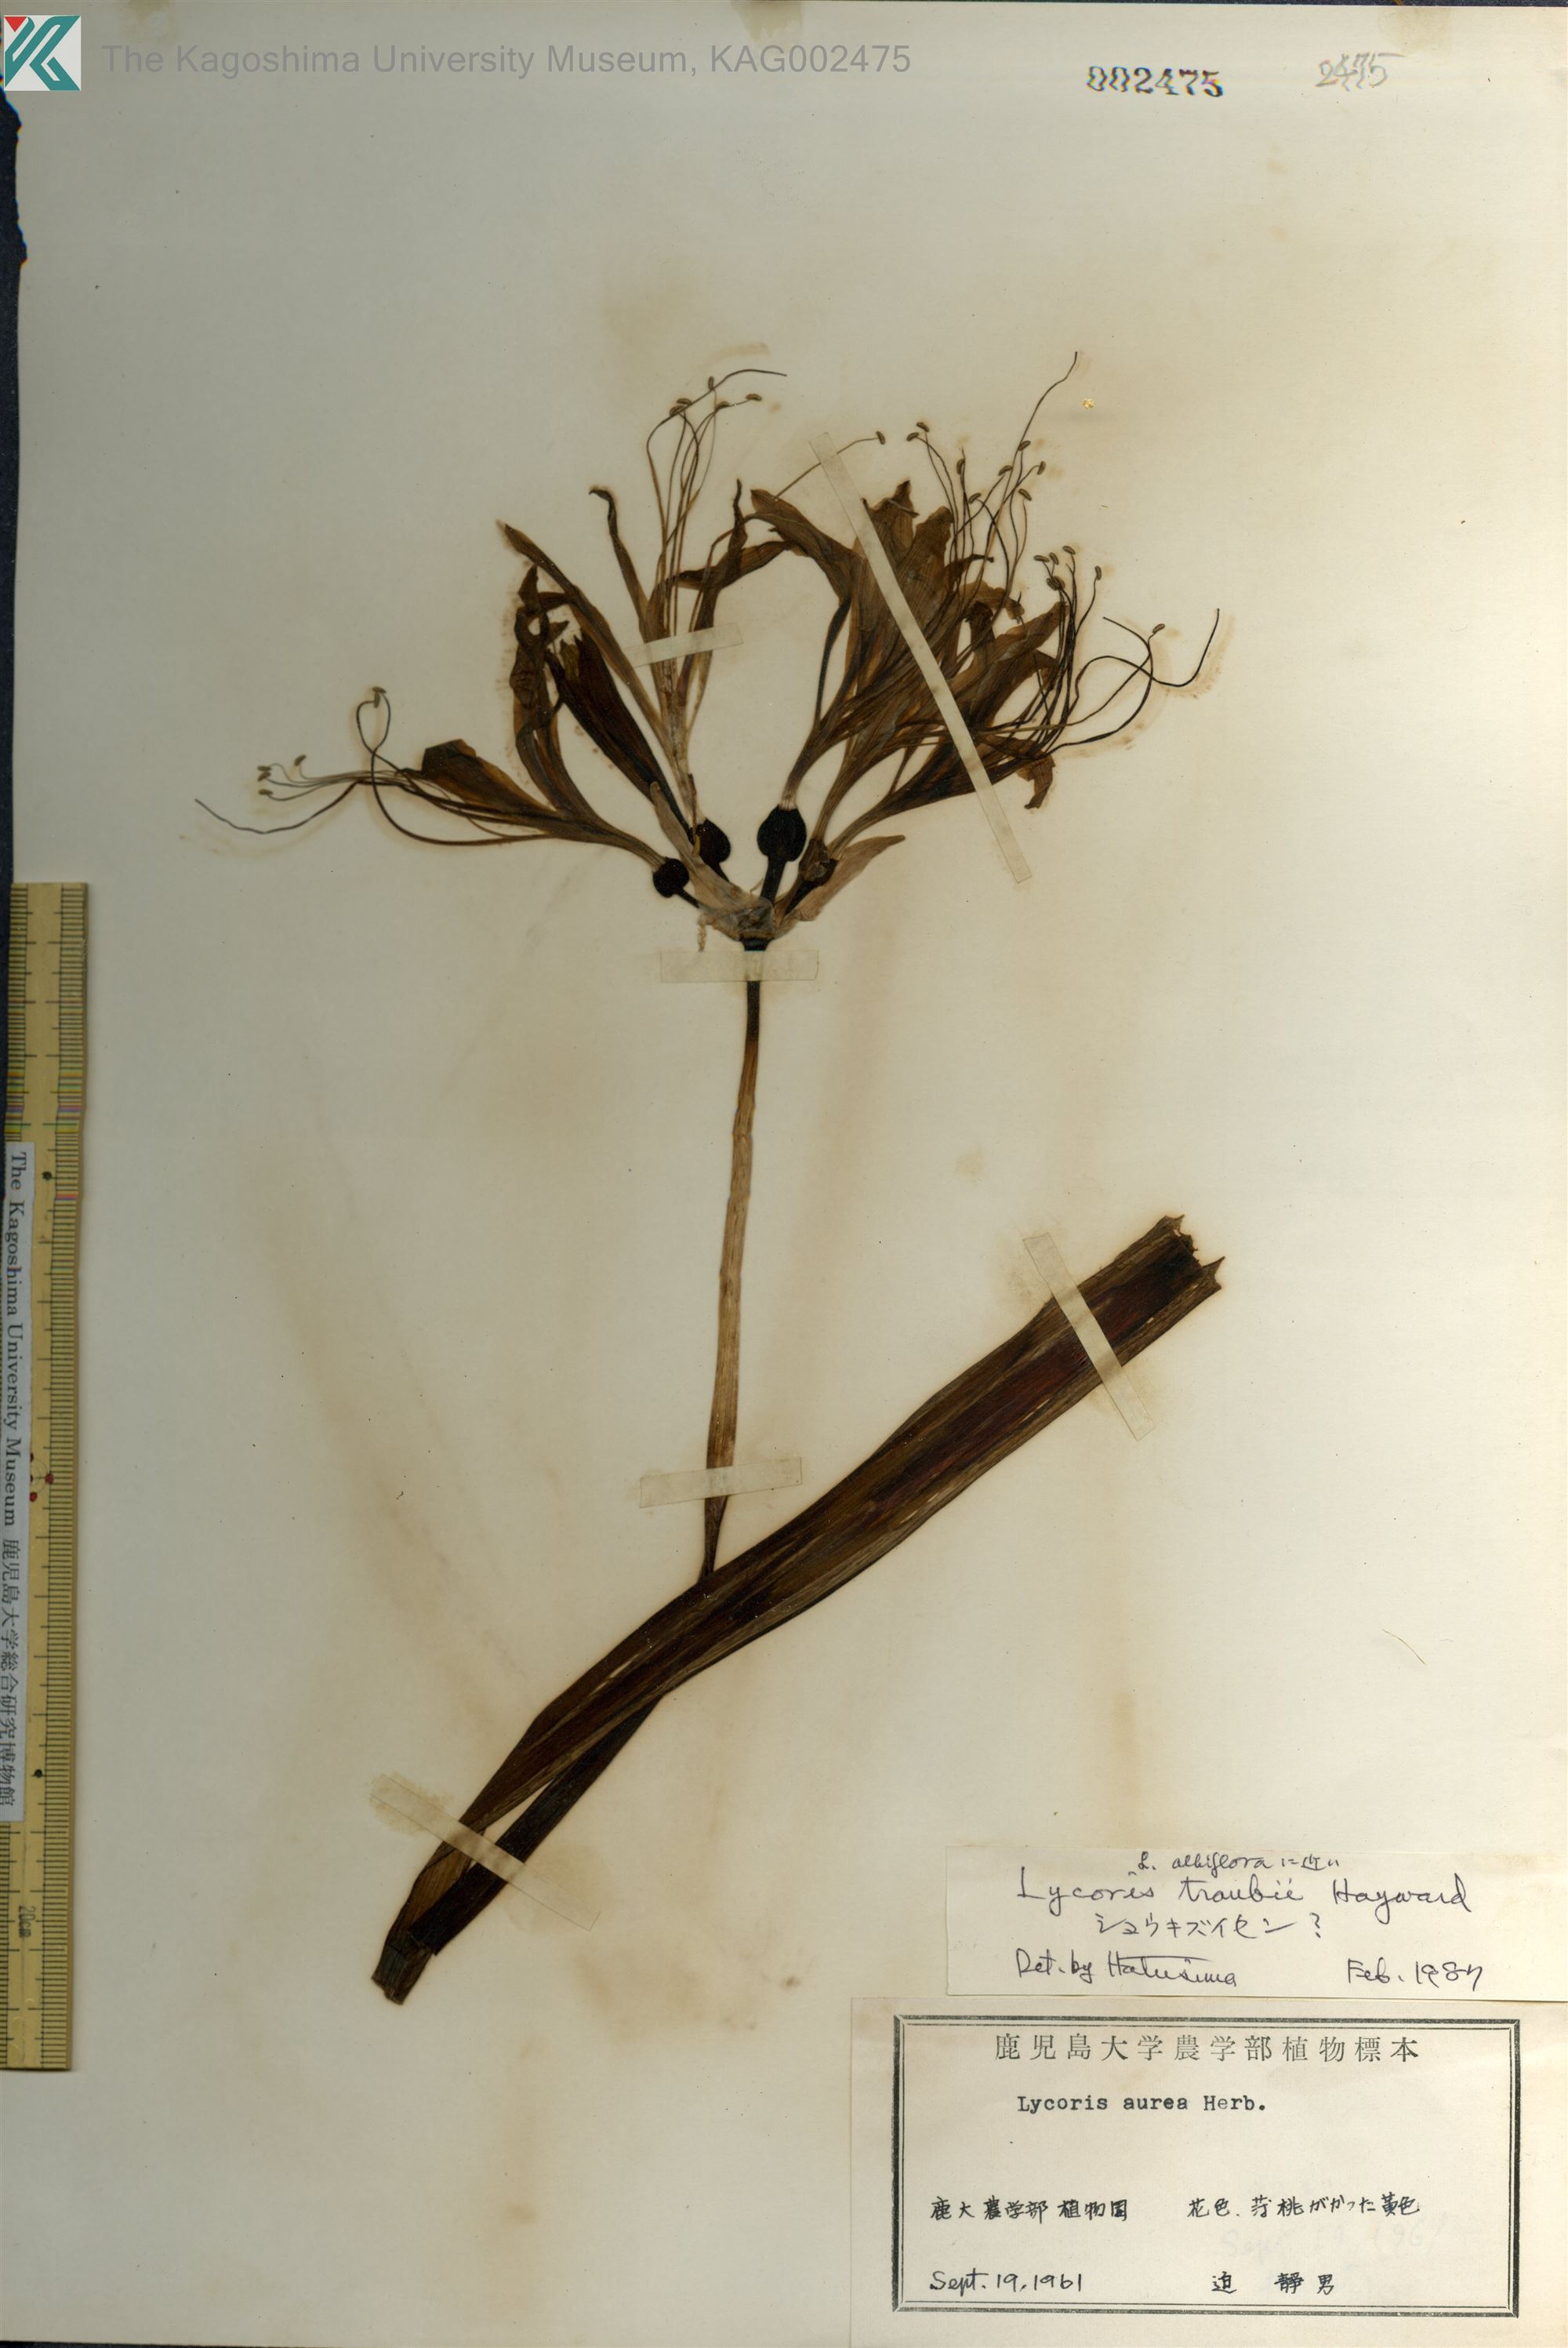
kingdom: Plantae
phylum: Tracheophyta
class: Liliopsida
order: Asparagales
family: Amaryllidaceae
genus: Lycoris
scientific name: Lycoris traubii
